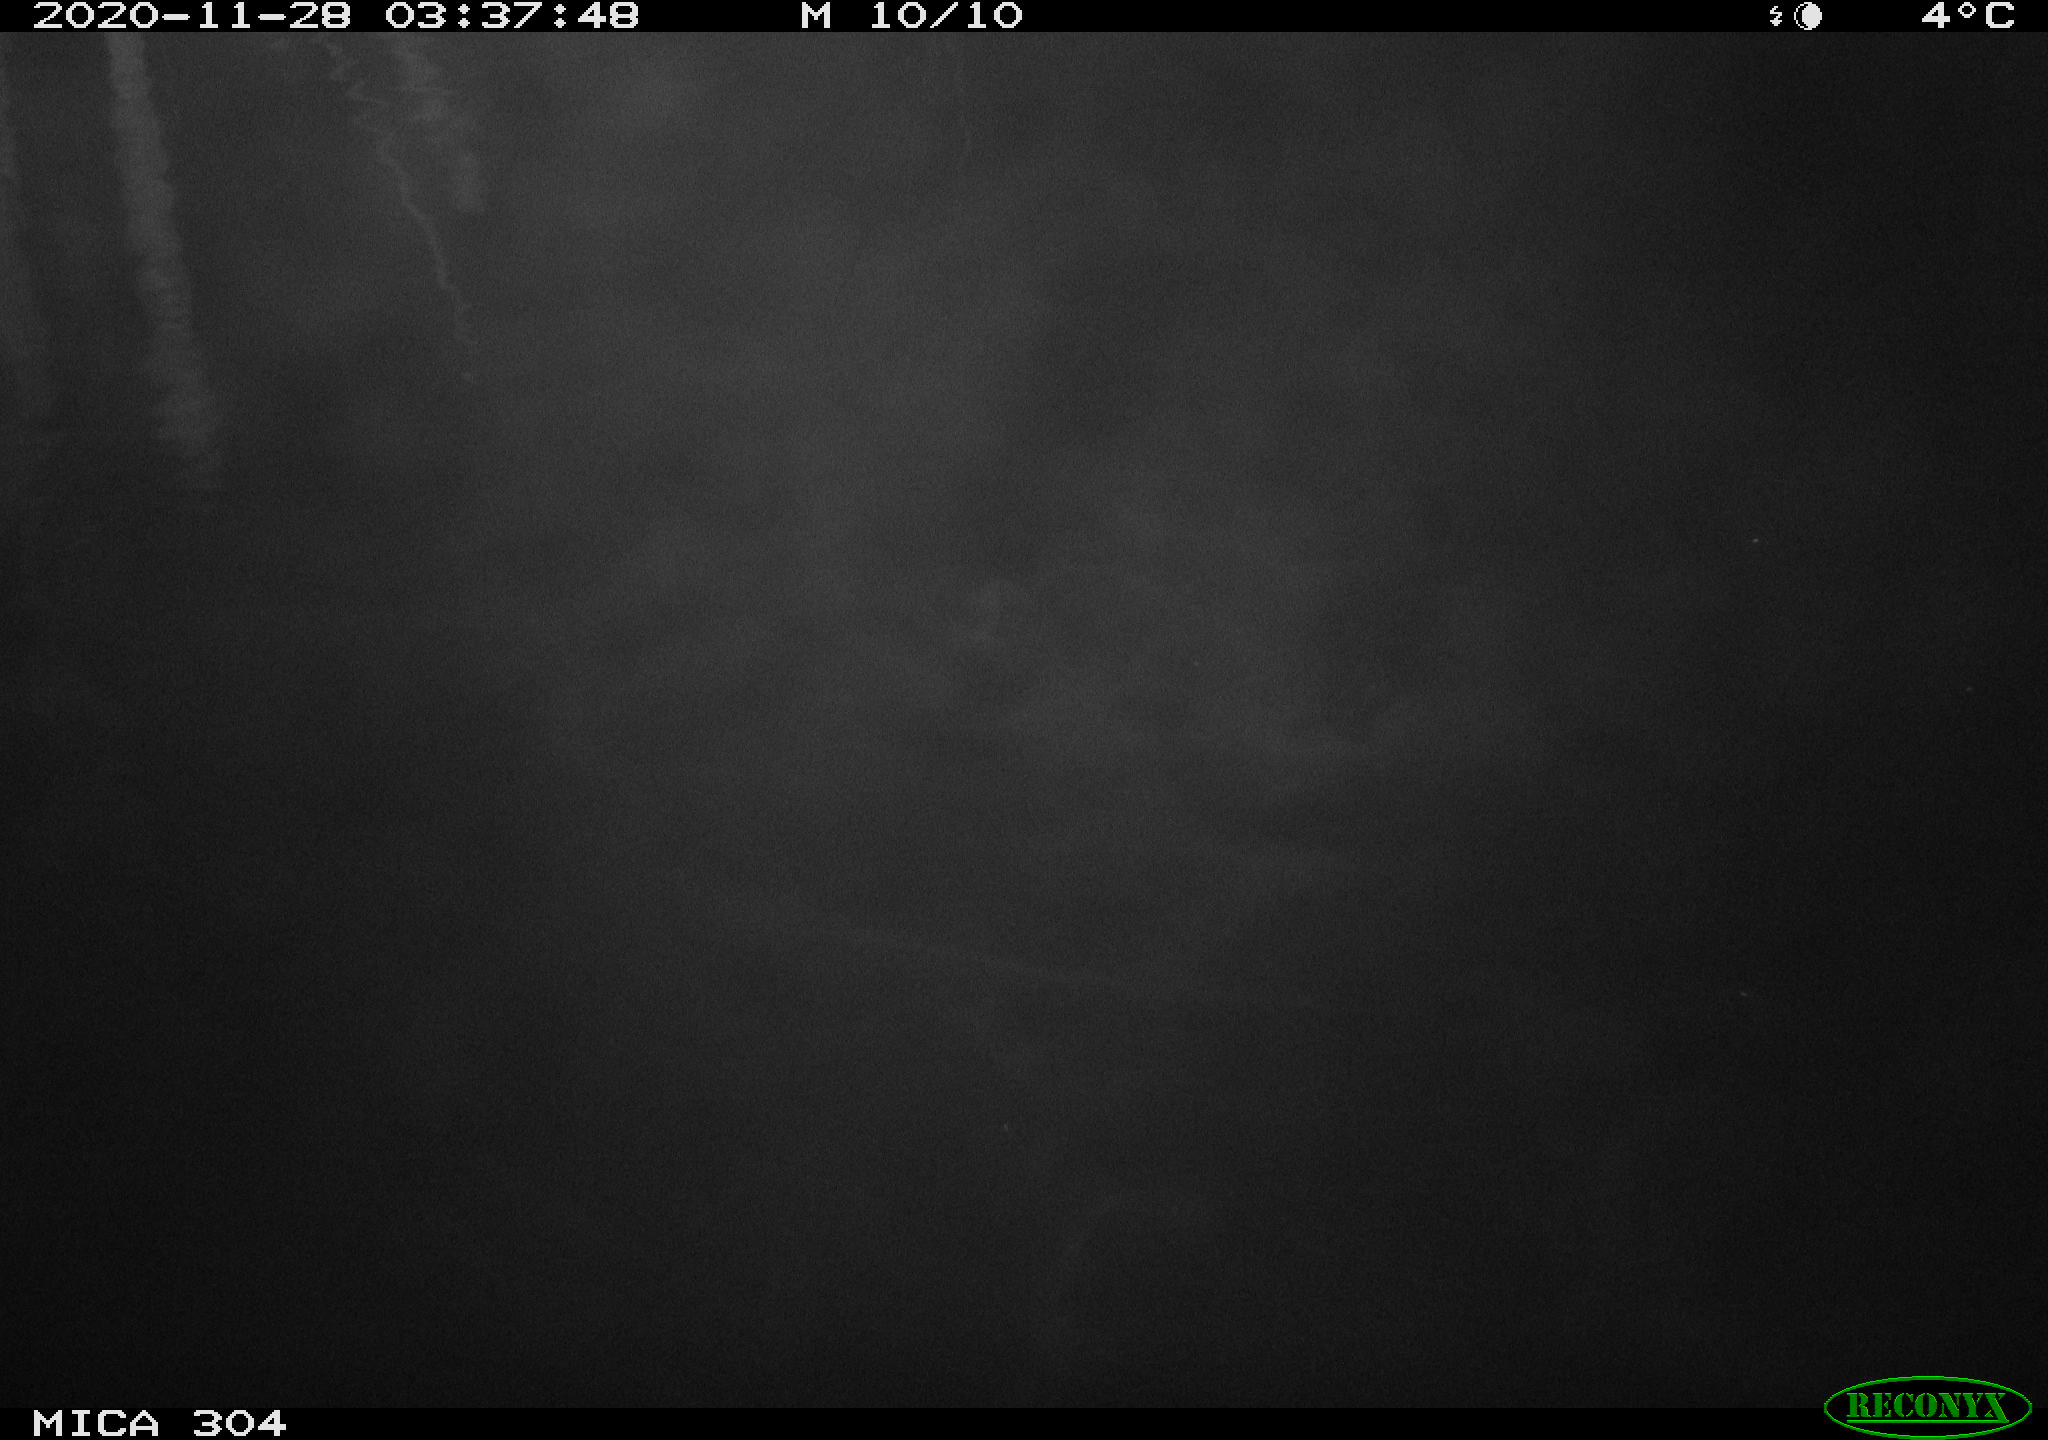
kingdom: Animalia
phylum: Chordata
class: Aves
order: Gruiformes
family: Rallidae
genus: Fulica
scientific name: Fulica atra
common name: Eurasian coot
